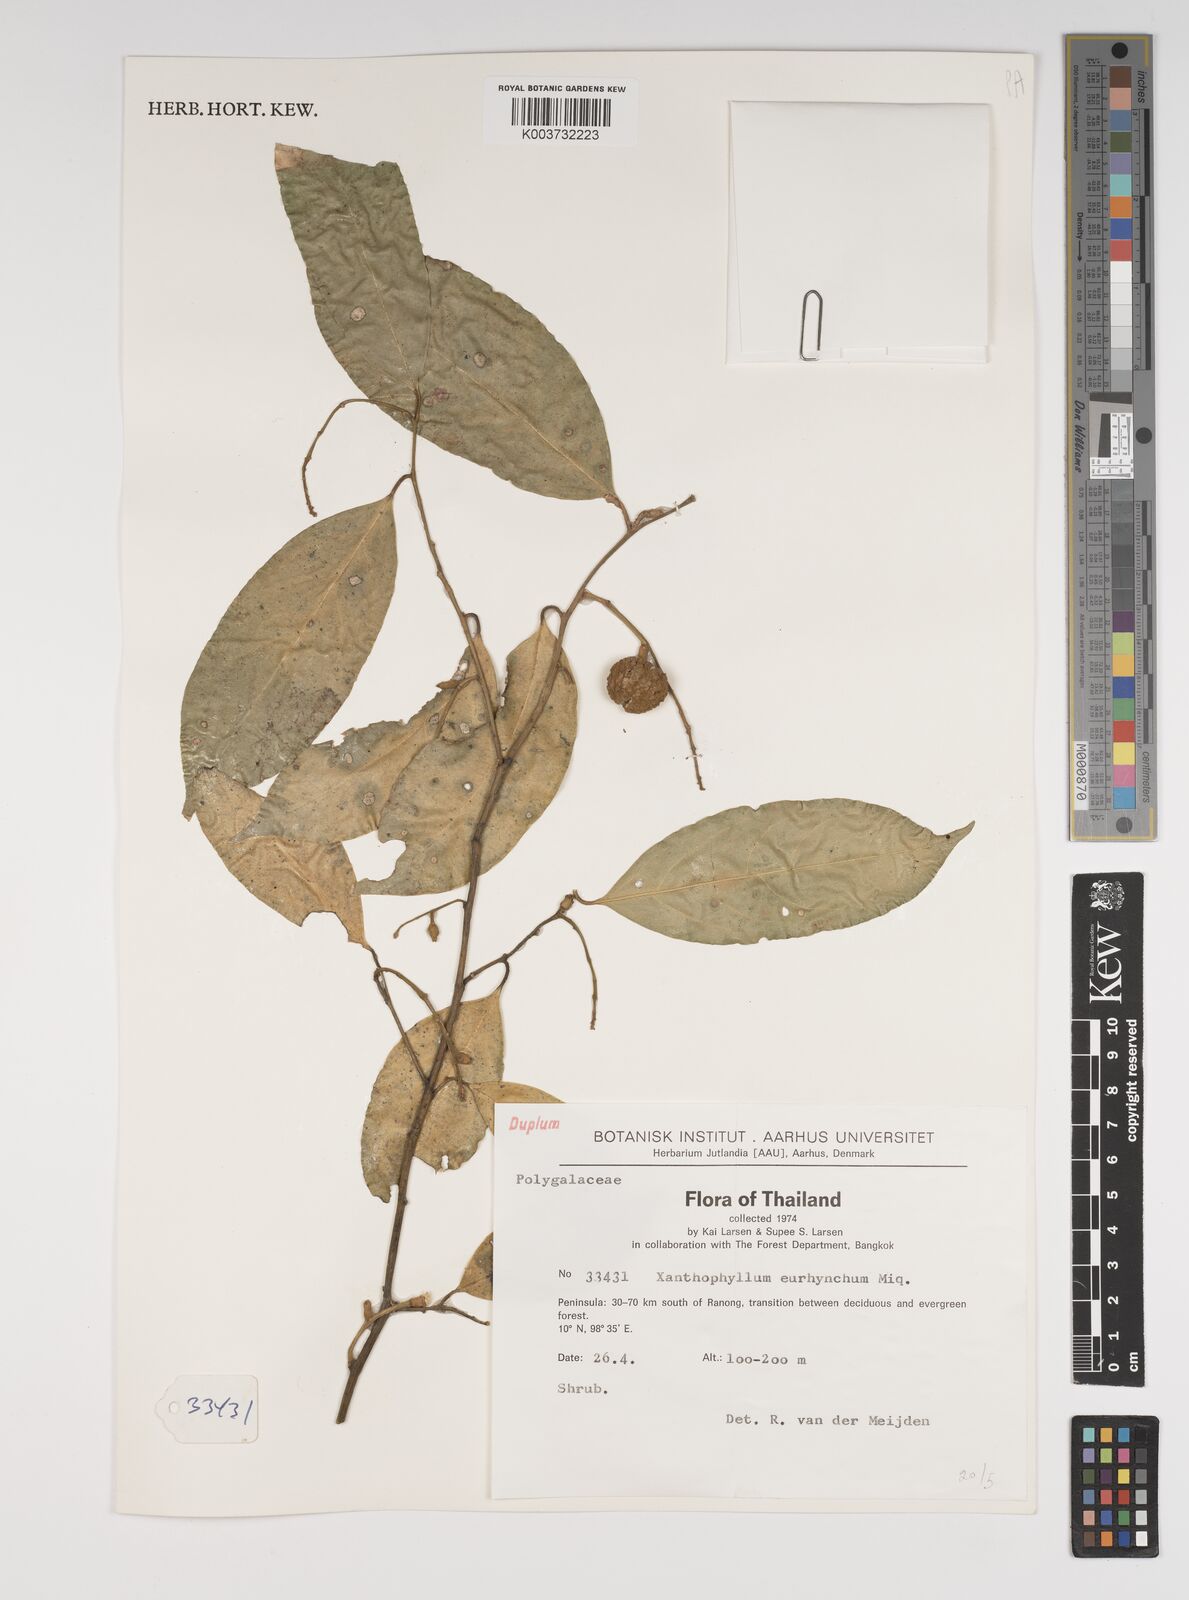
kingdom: Plantae
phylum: Tracheophyta
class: Magnoliopsida
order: Fabales
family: Polygalaceae
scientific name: Polygalaceae
